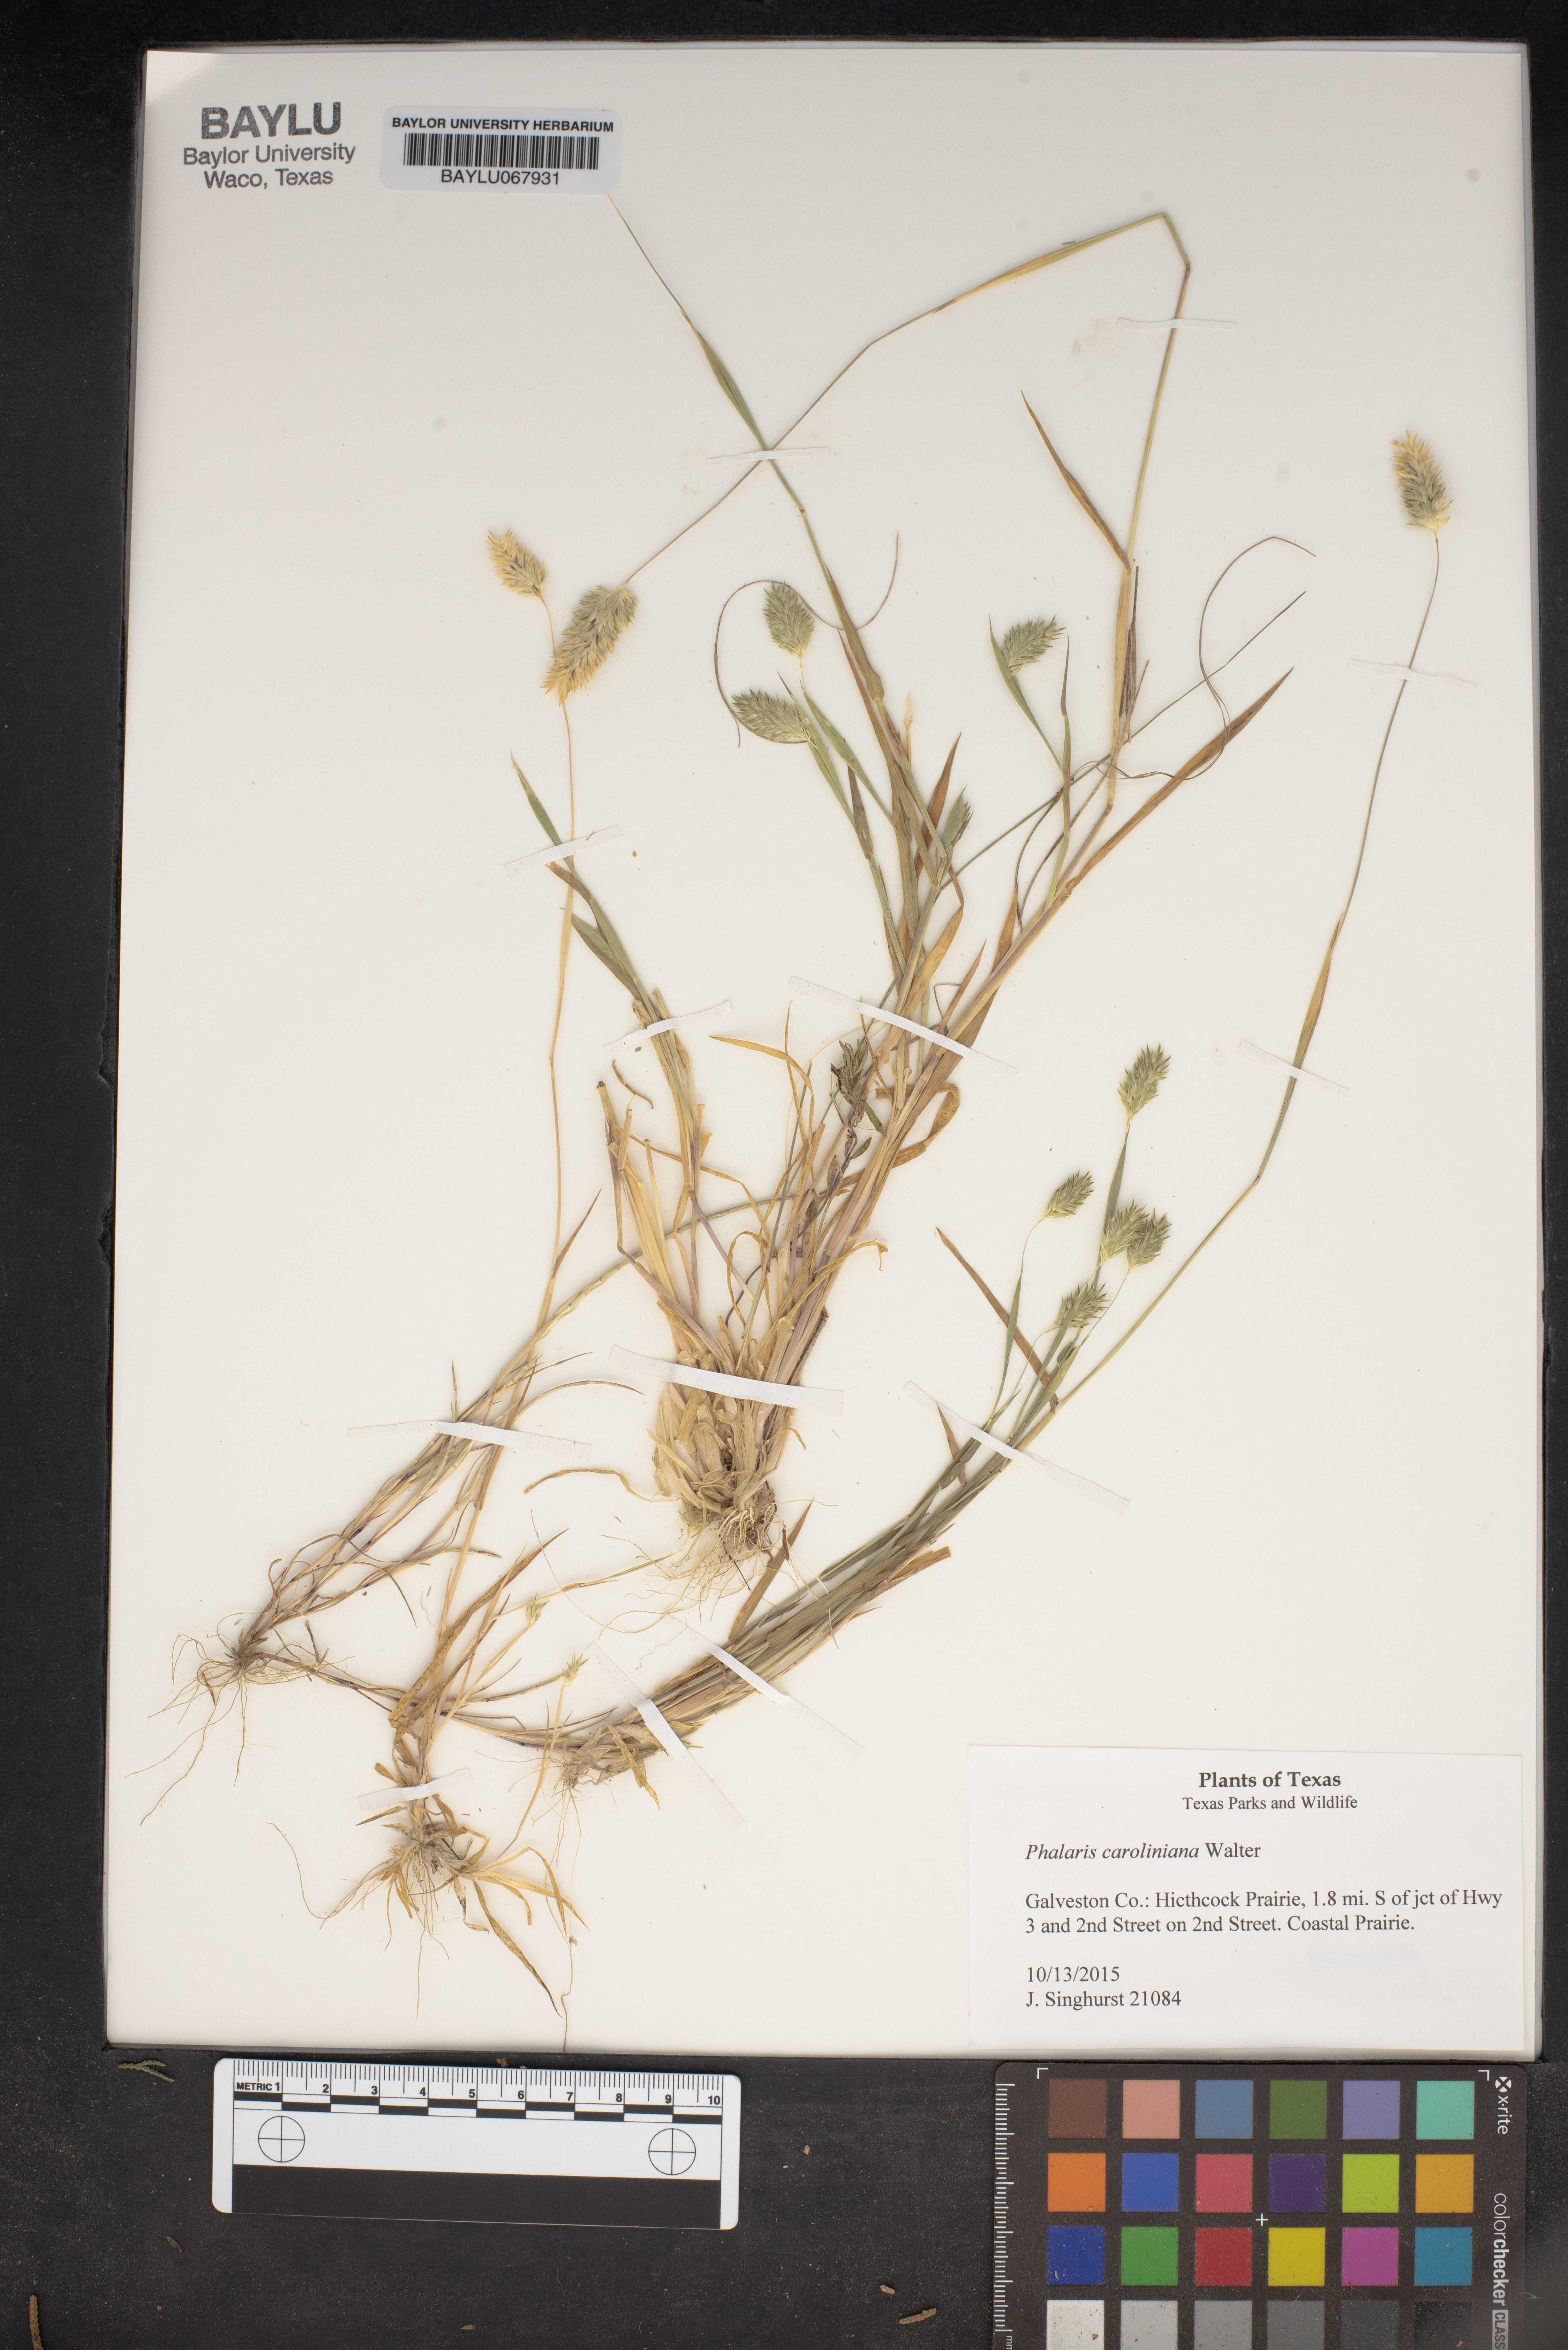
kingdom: Plantae
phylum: Tracheophyta
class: Liliopsida
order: Poales
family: Poaceae
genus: Phalaris
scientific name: Phalaris caroliniana
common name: May grass
